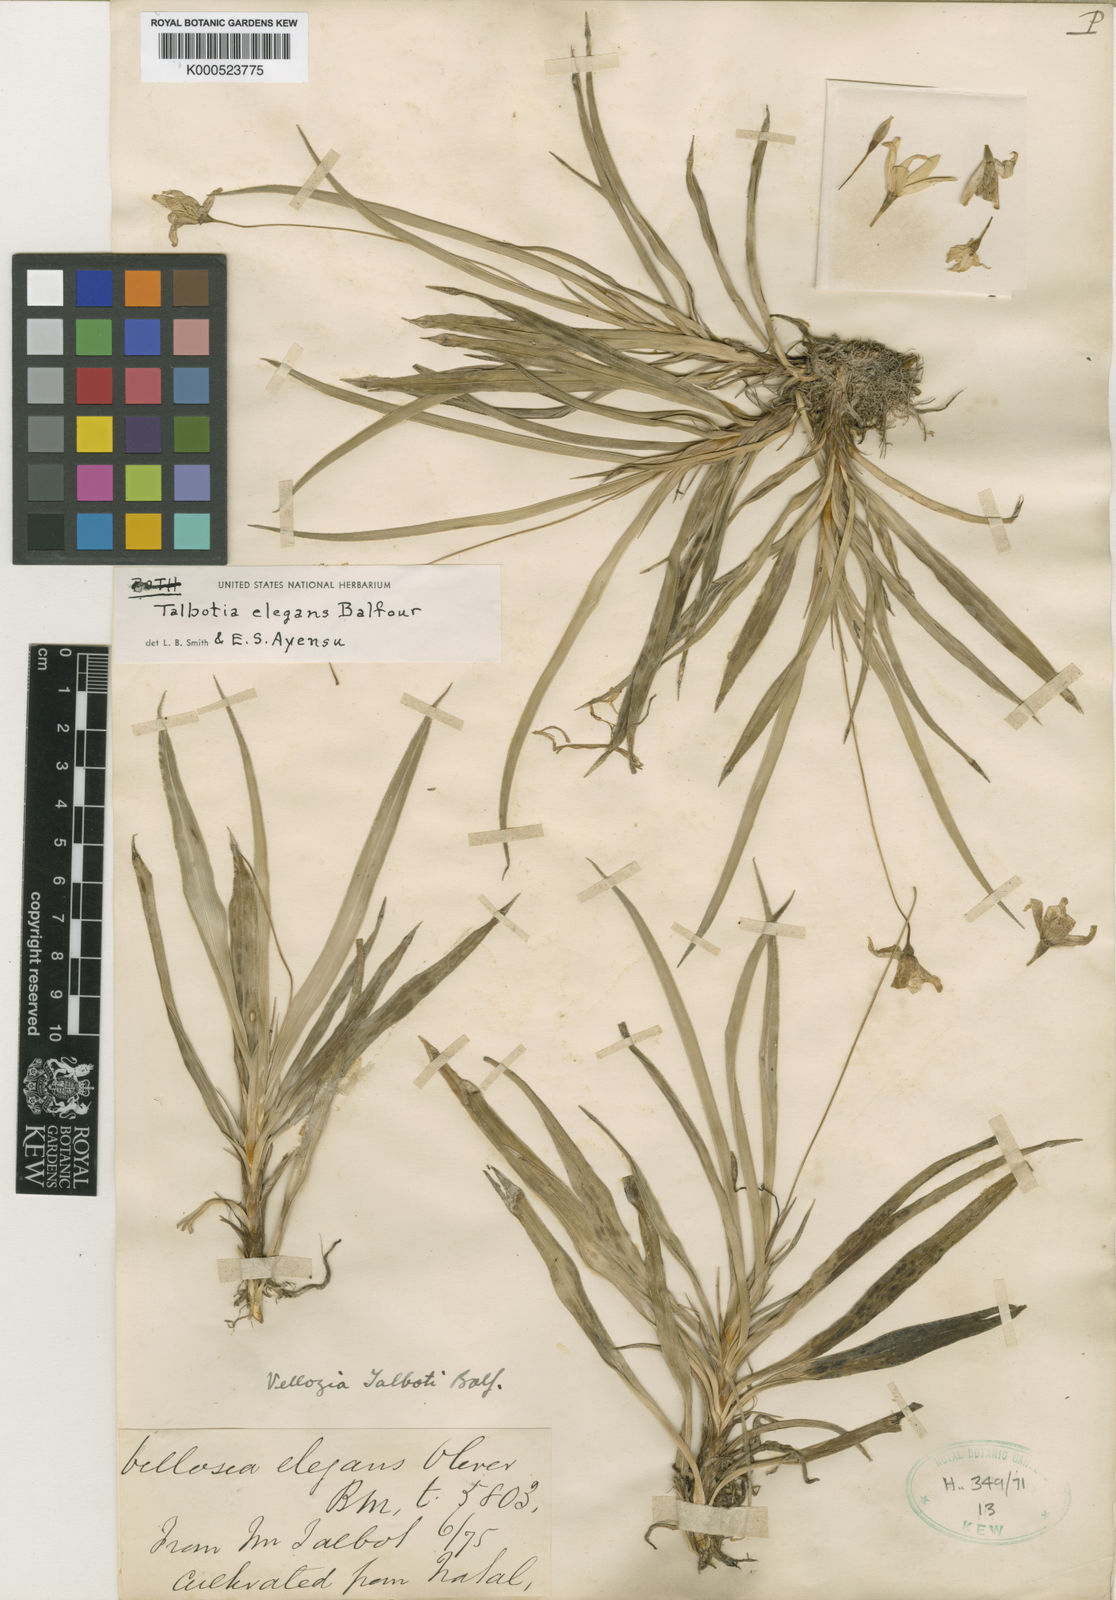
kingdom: Plantae
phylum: Tracheophyta
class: Liliopsida
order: Pandanales
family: Velloziaceae
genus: Xerophyta
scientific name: Xerophyta elegans
